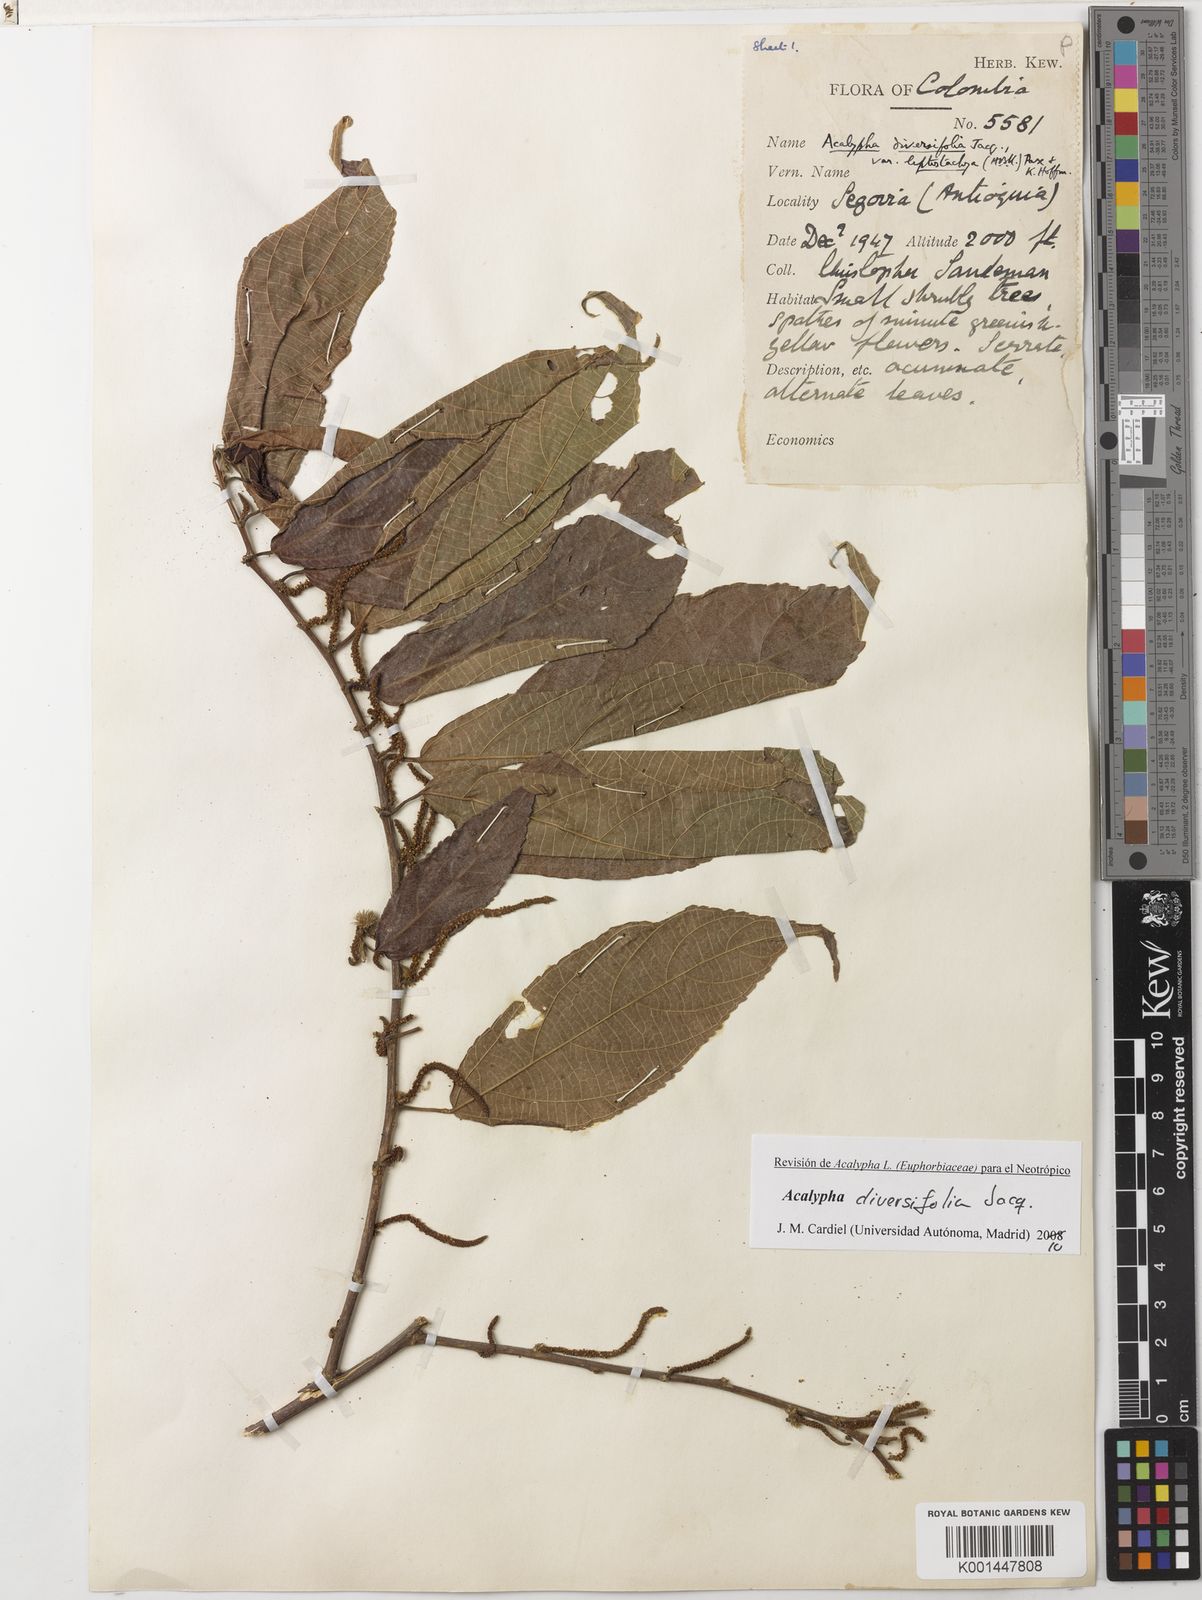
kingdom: Plantae
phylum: Tracheophyta
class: Magnoliopsida
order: Malpighiales
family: Euphorbiaceae
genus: Acalypha
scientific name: Acalypha diversifolia
